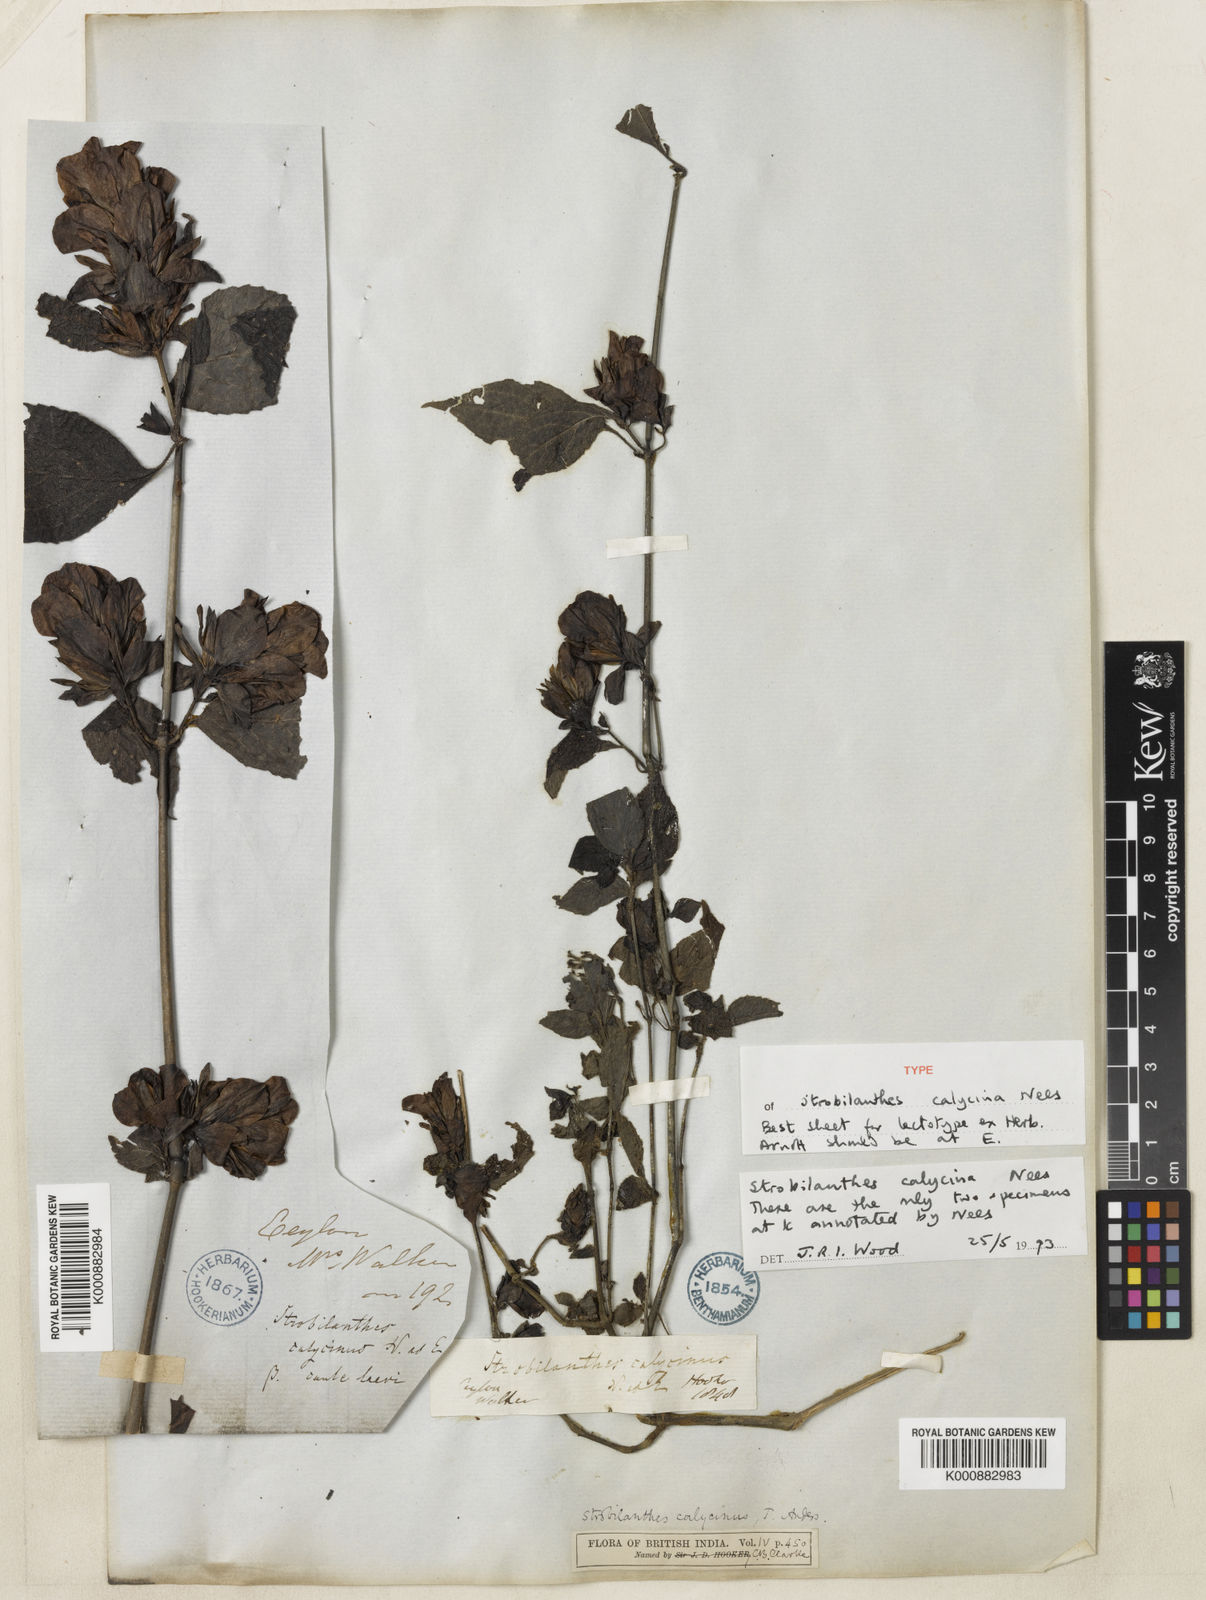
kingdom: Plantae
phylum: Tracheophyta
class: Magnoliopsida
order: Lamiales
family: Acanthaceae
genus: Strobilanthes
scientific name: Strobilanthes calycina
